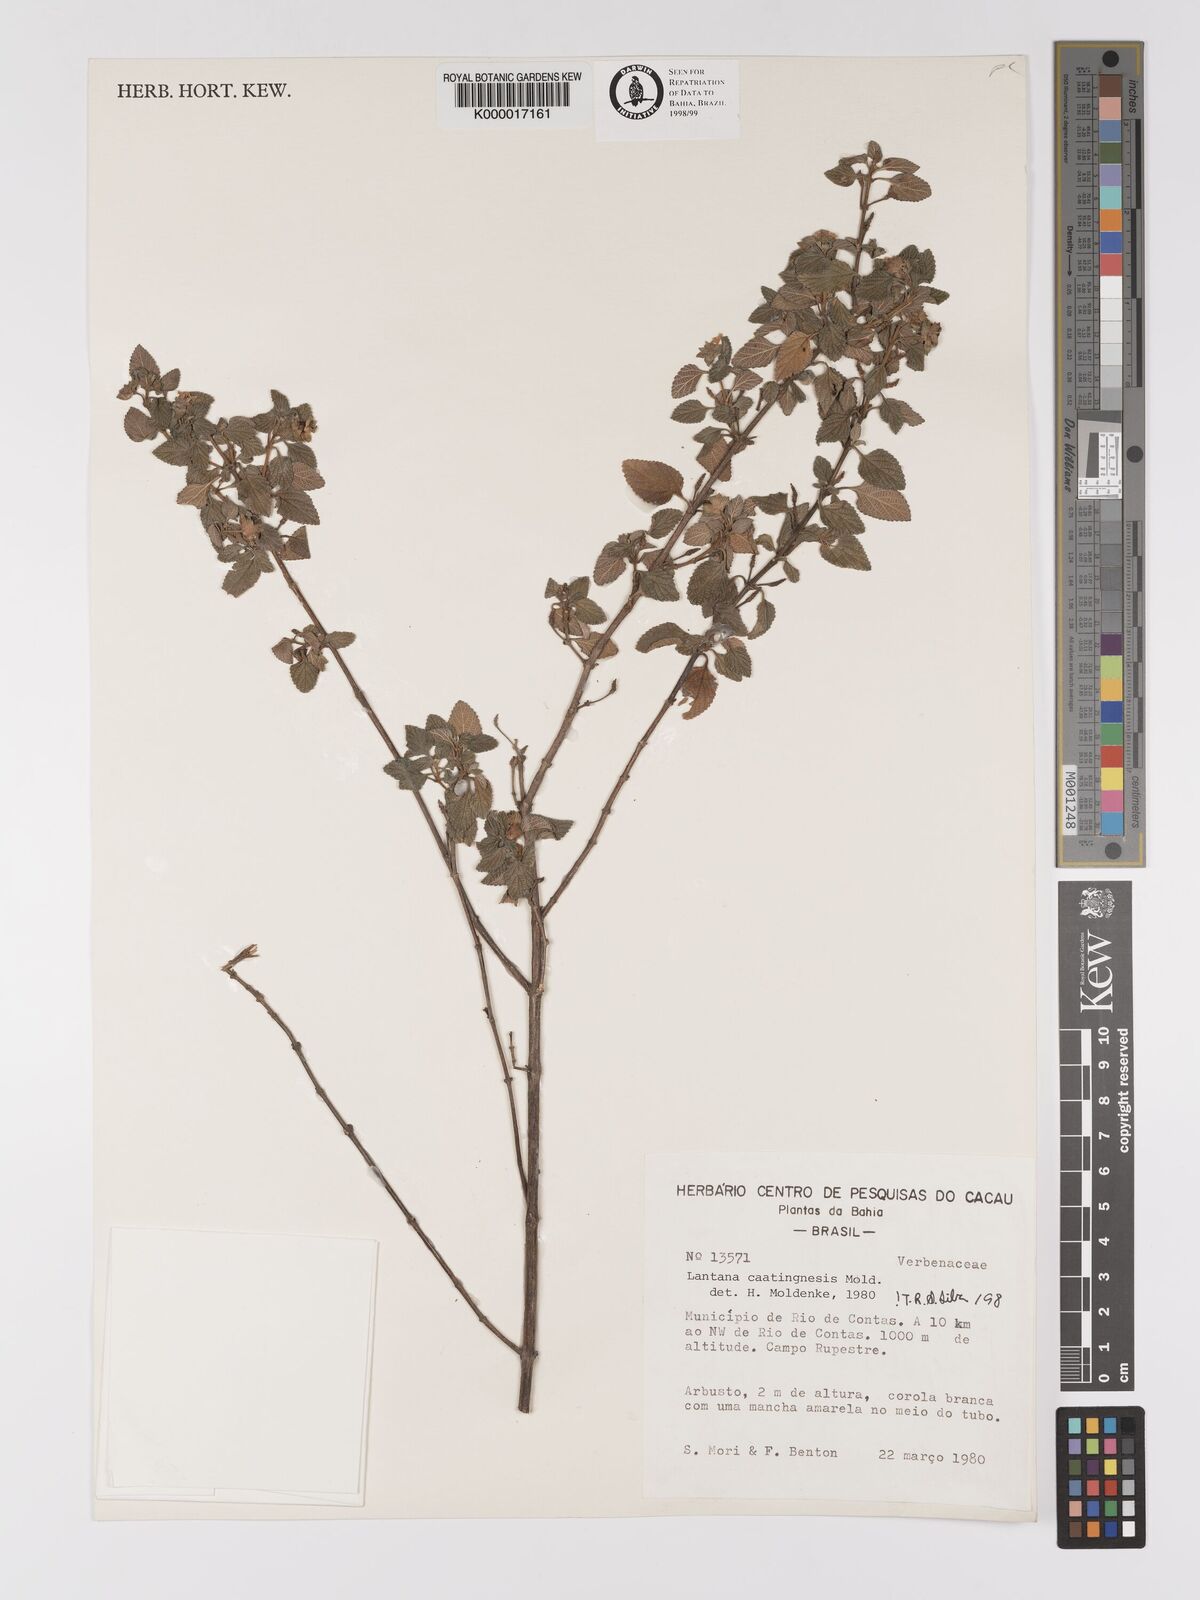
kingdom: Plantae
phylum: Tracheophyta
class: Magnoliopsida
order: Lamiales
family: Verbenaceae
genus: Lantana
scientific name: Lantana caatingensis
